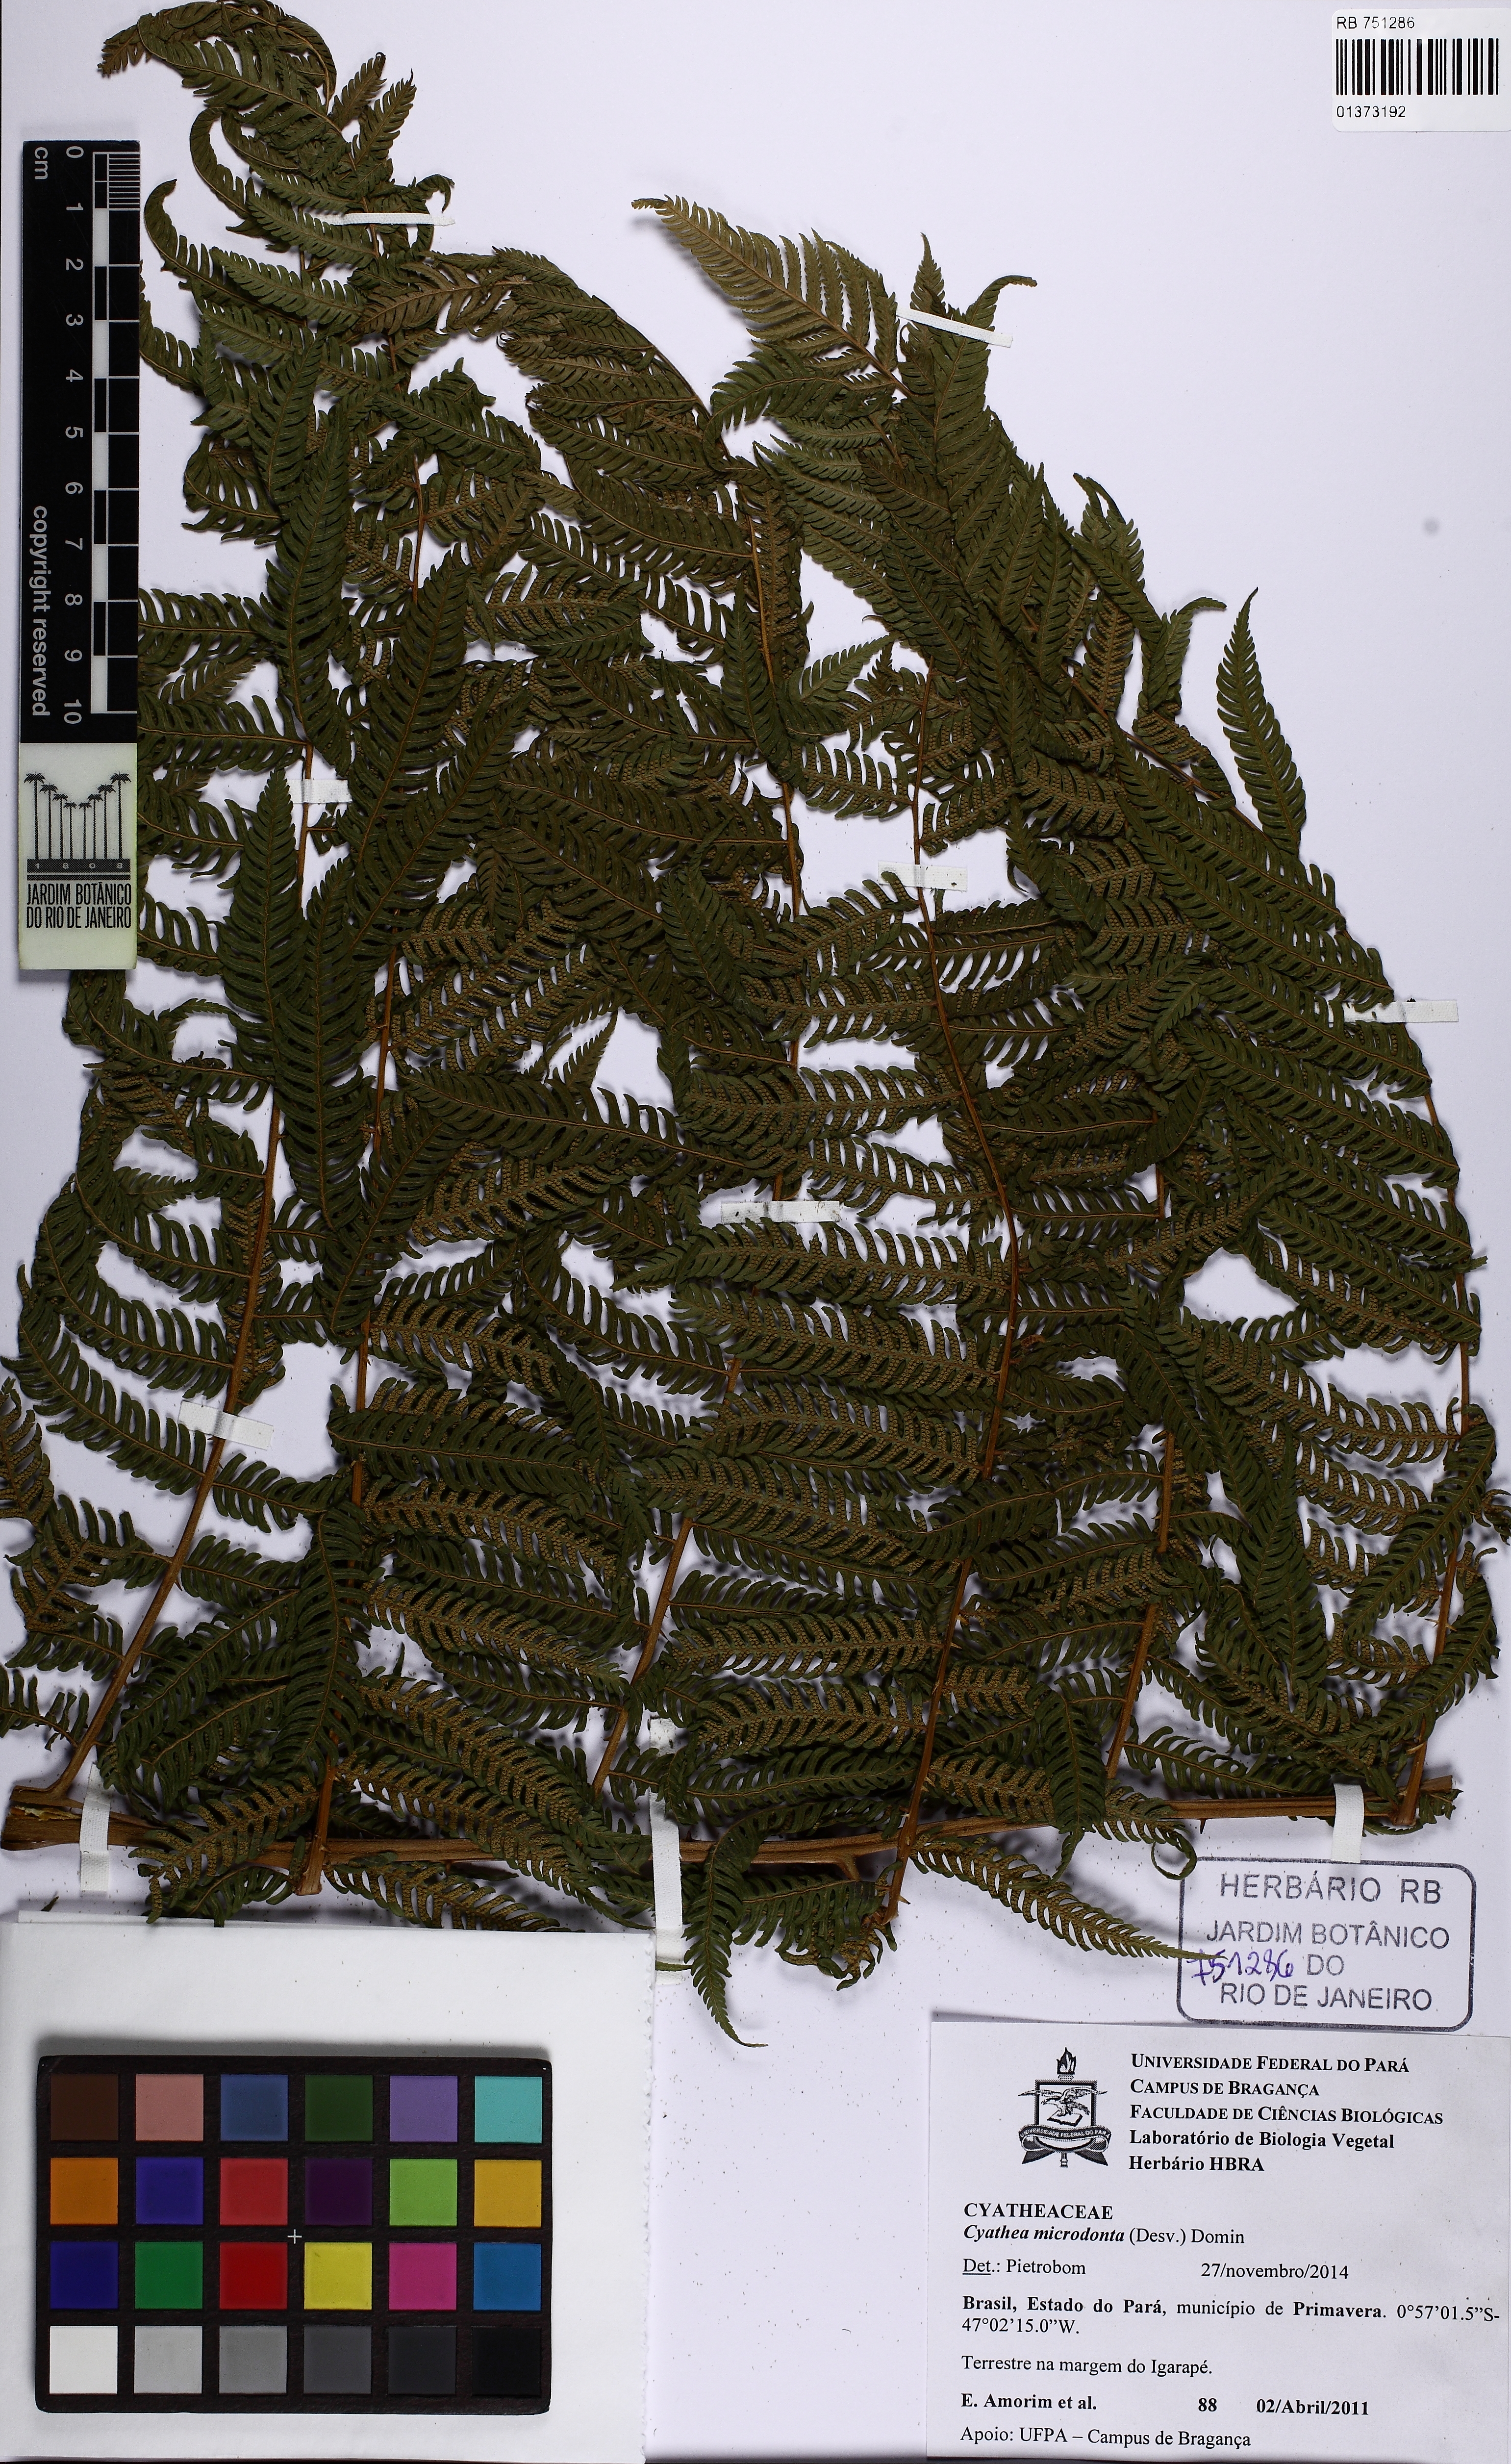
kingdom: Plantae
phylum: Tracheophyta
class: Polypodiopsida
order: Cyatheales
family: Cyatheaceae
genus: Cyathea
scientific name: Cyathea microdonta
